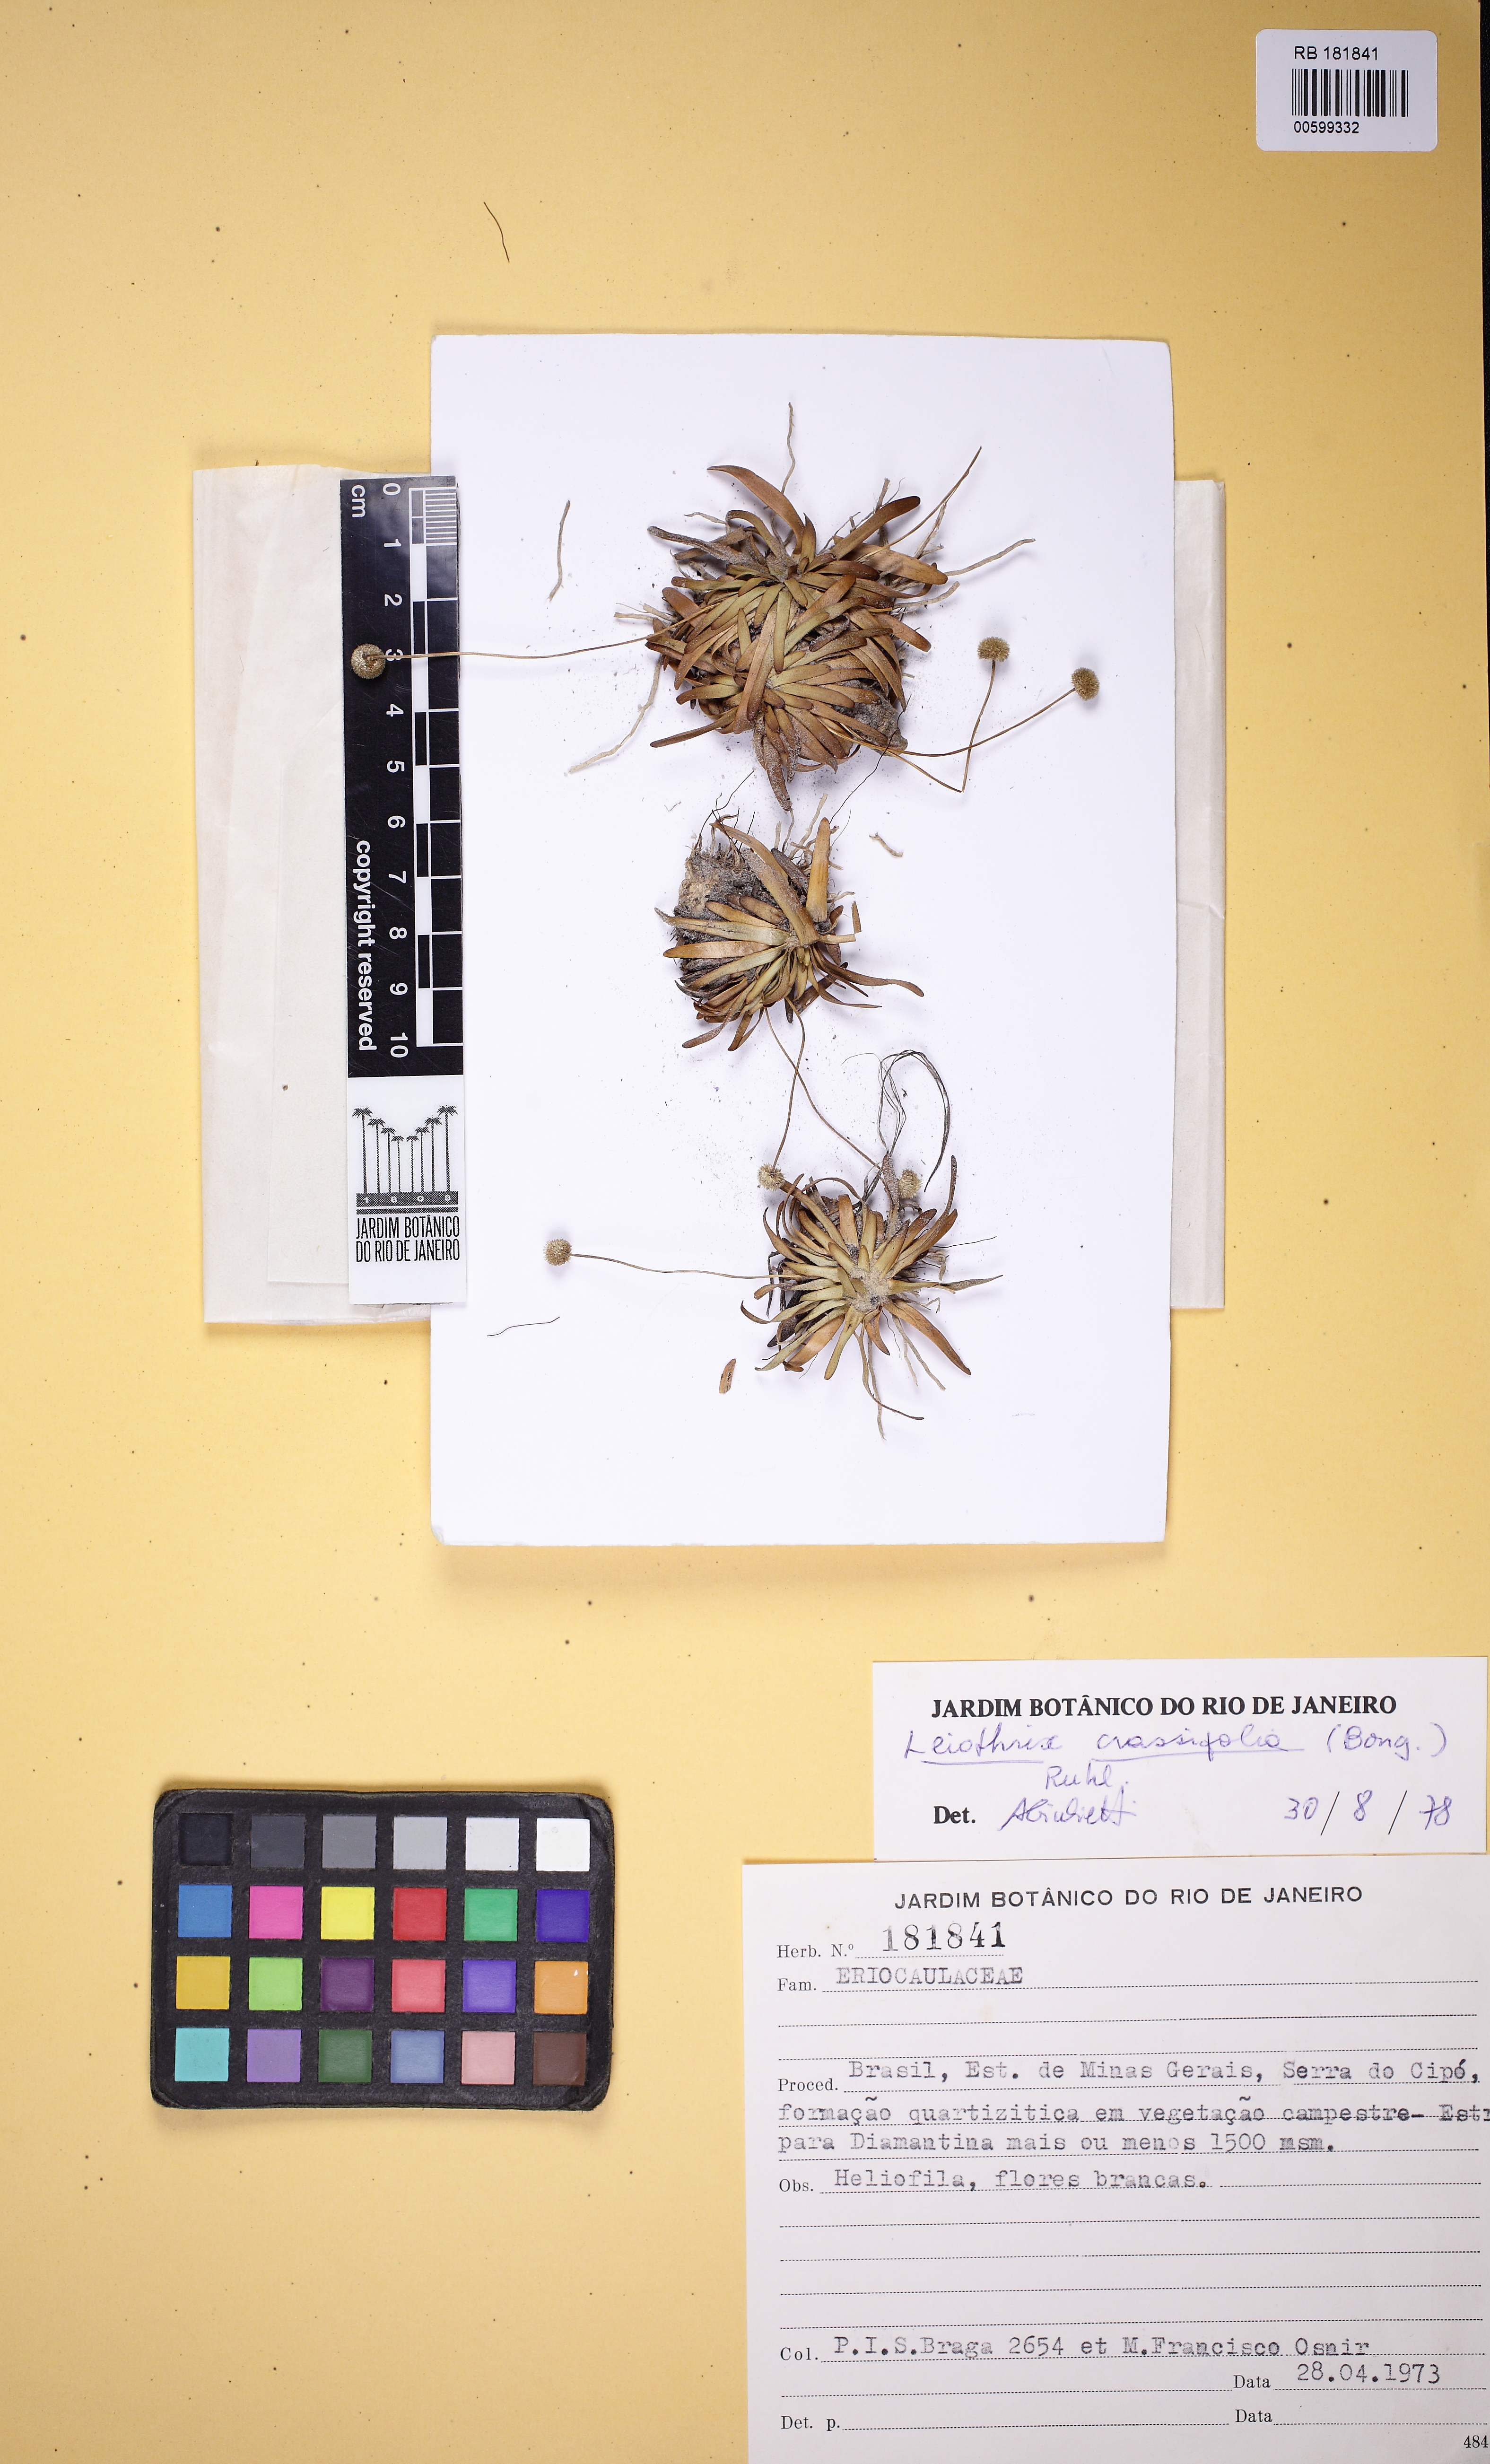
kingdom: Plantae
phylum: Tracheophyta
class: Liliopsida
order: Poales
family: Eriocaulaceae
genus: Leiothrix
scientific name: Leiothrix crassifolia
